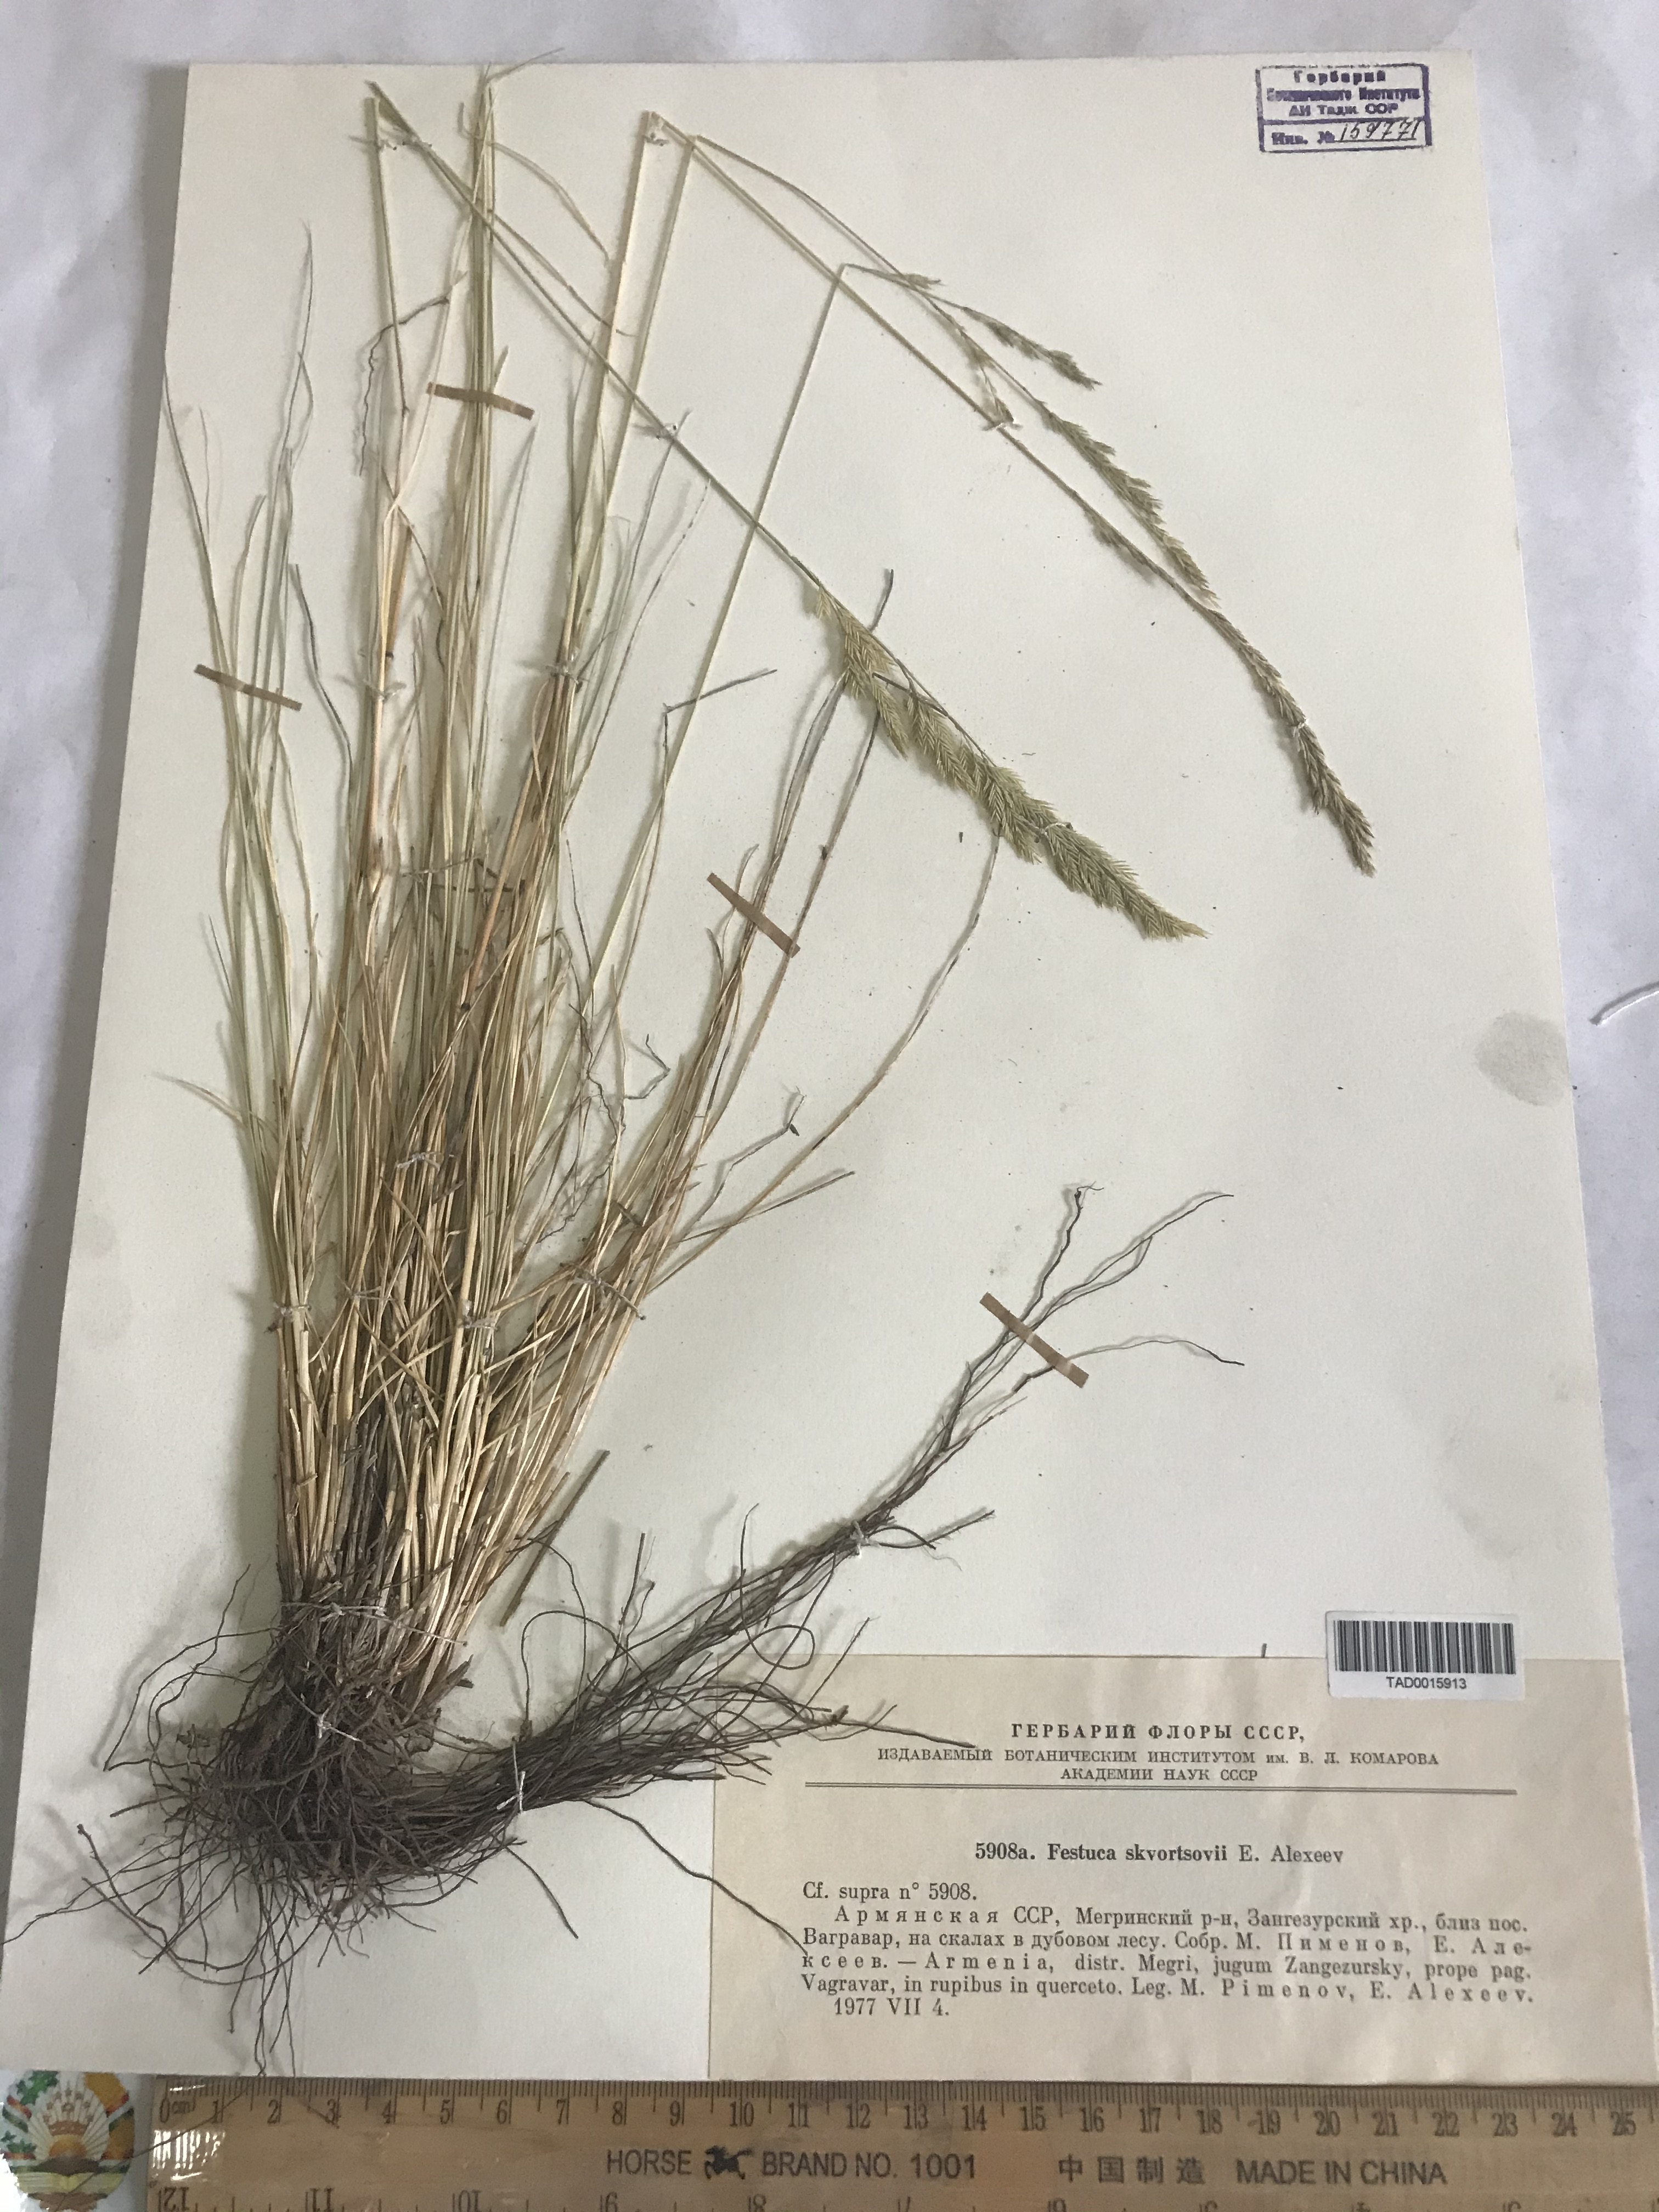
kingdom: Plantae
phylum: Tracheophyta
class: Liliopsida
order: Poales
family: Poaceae
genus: Festuca
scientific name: Festuca skvortsovii
